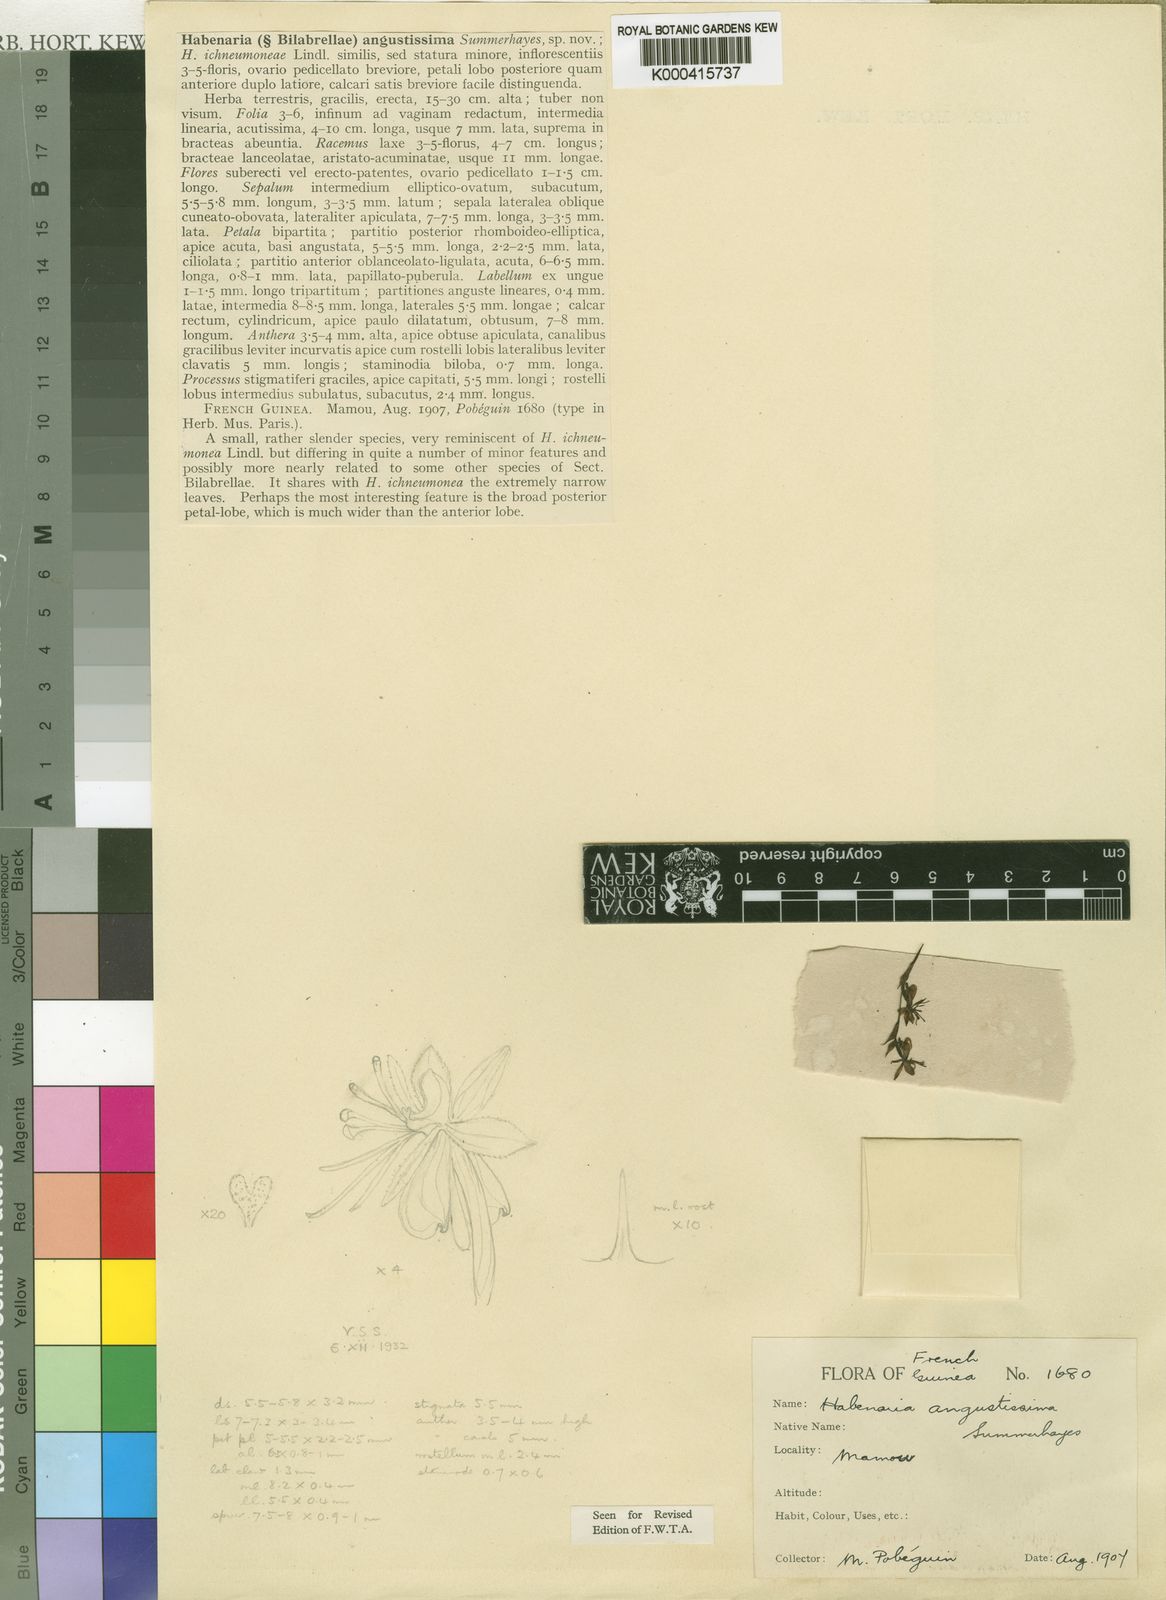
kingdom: Plantae
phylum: Tracheophyta
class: Liliopsida
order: Asparagales
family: Orchidaceae
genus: Habenaria
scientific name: Habenaria angustissima
